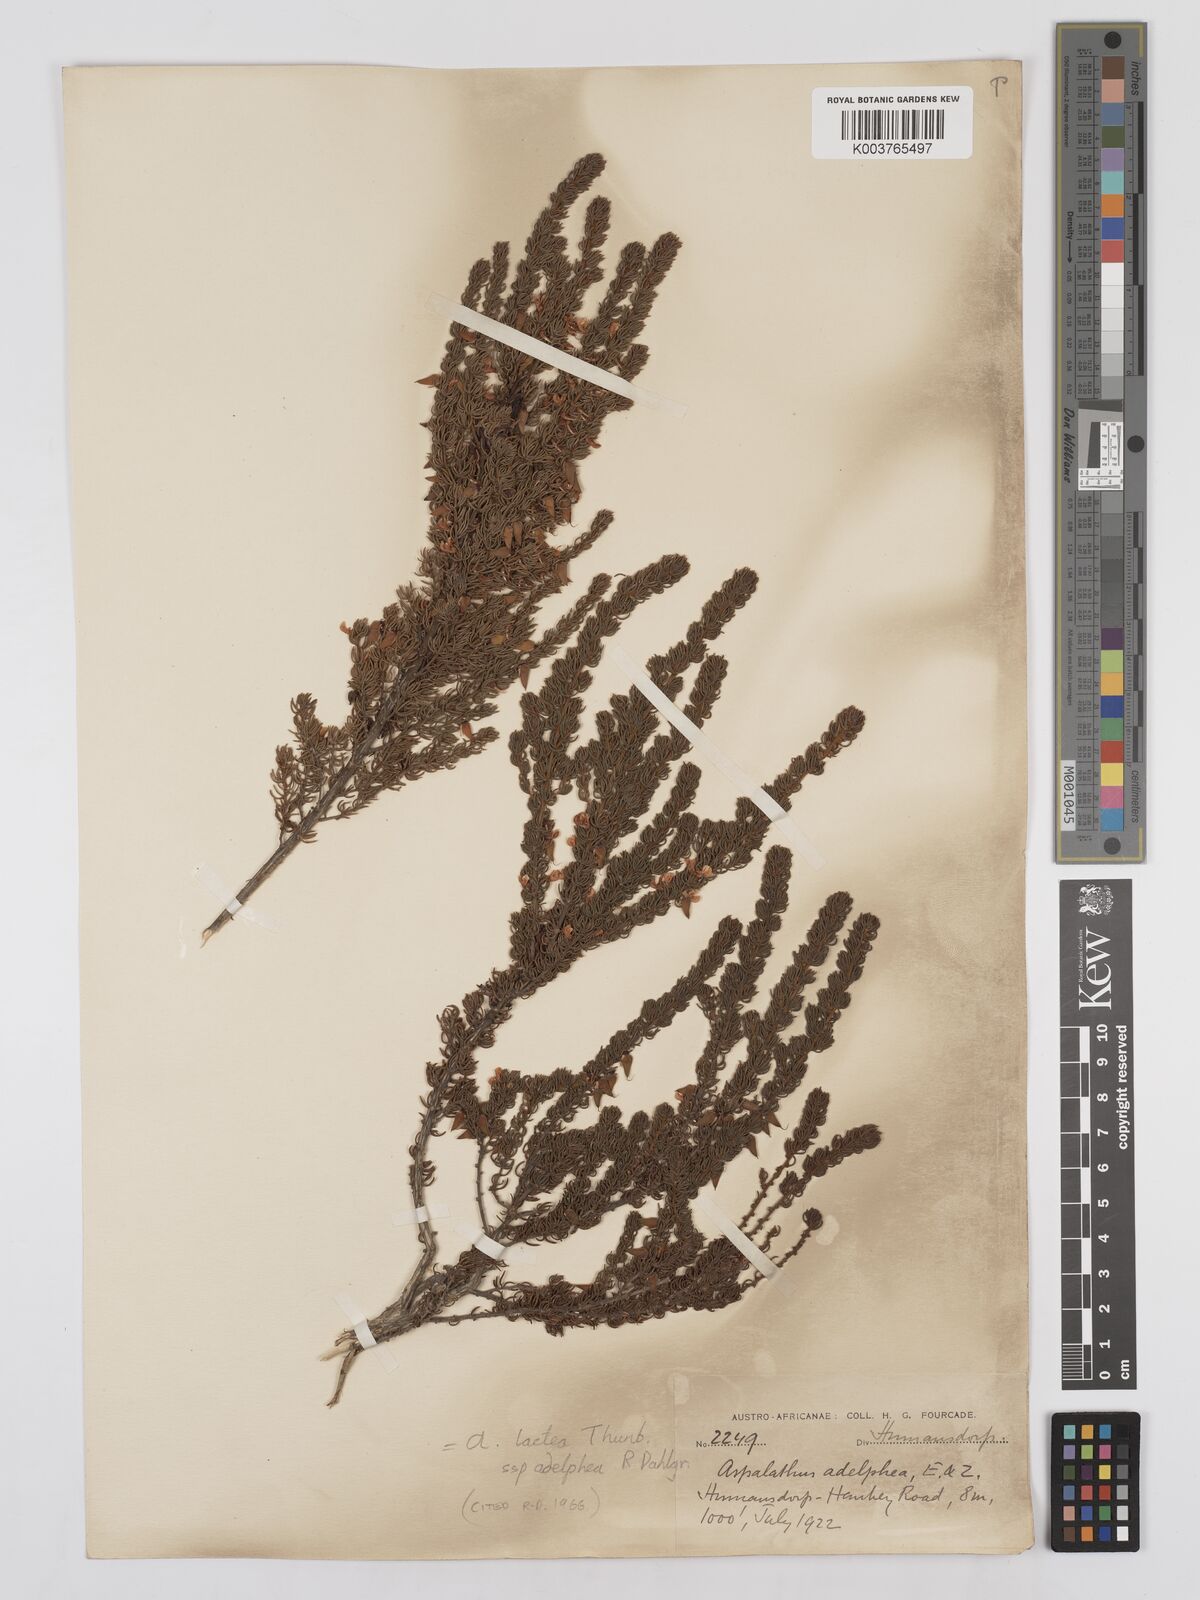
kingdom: Plantae
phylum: Tracheophyta
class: Magnoliopsida
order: Fabales
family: Fabaceae
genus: Aspalathus
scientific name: Aspalathus lactea
